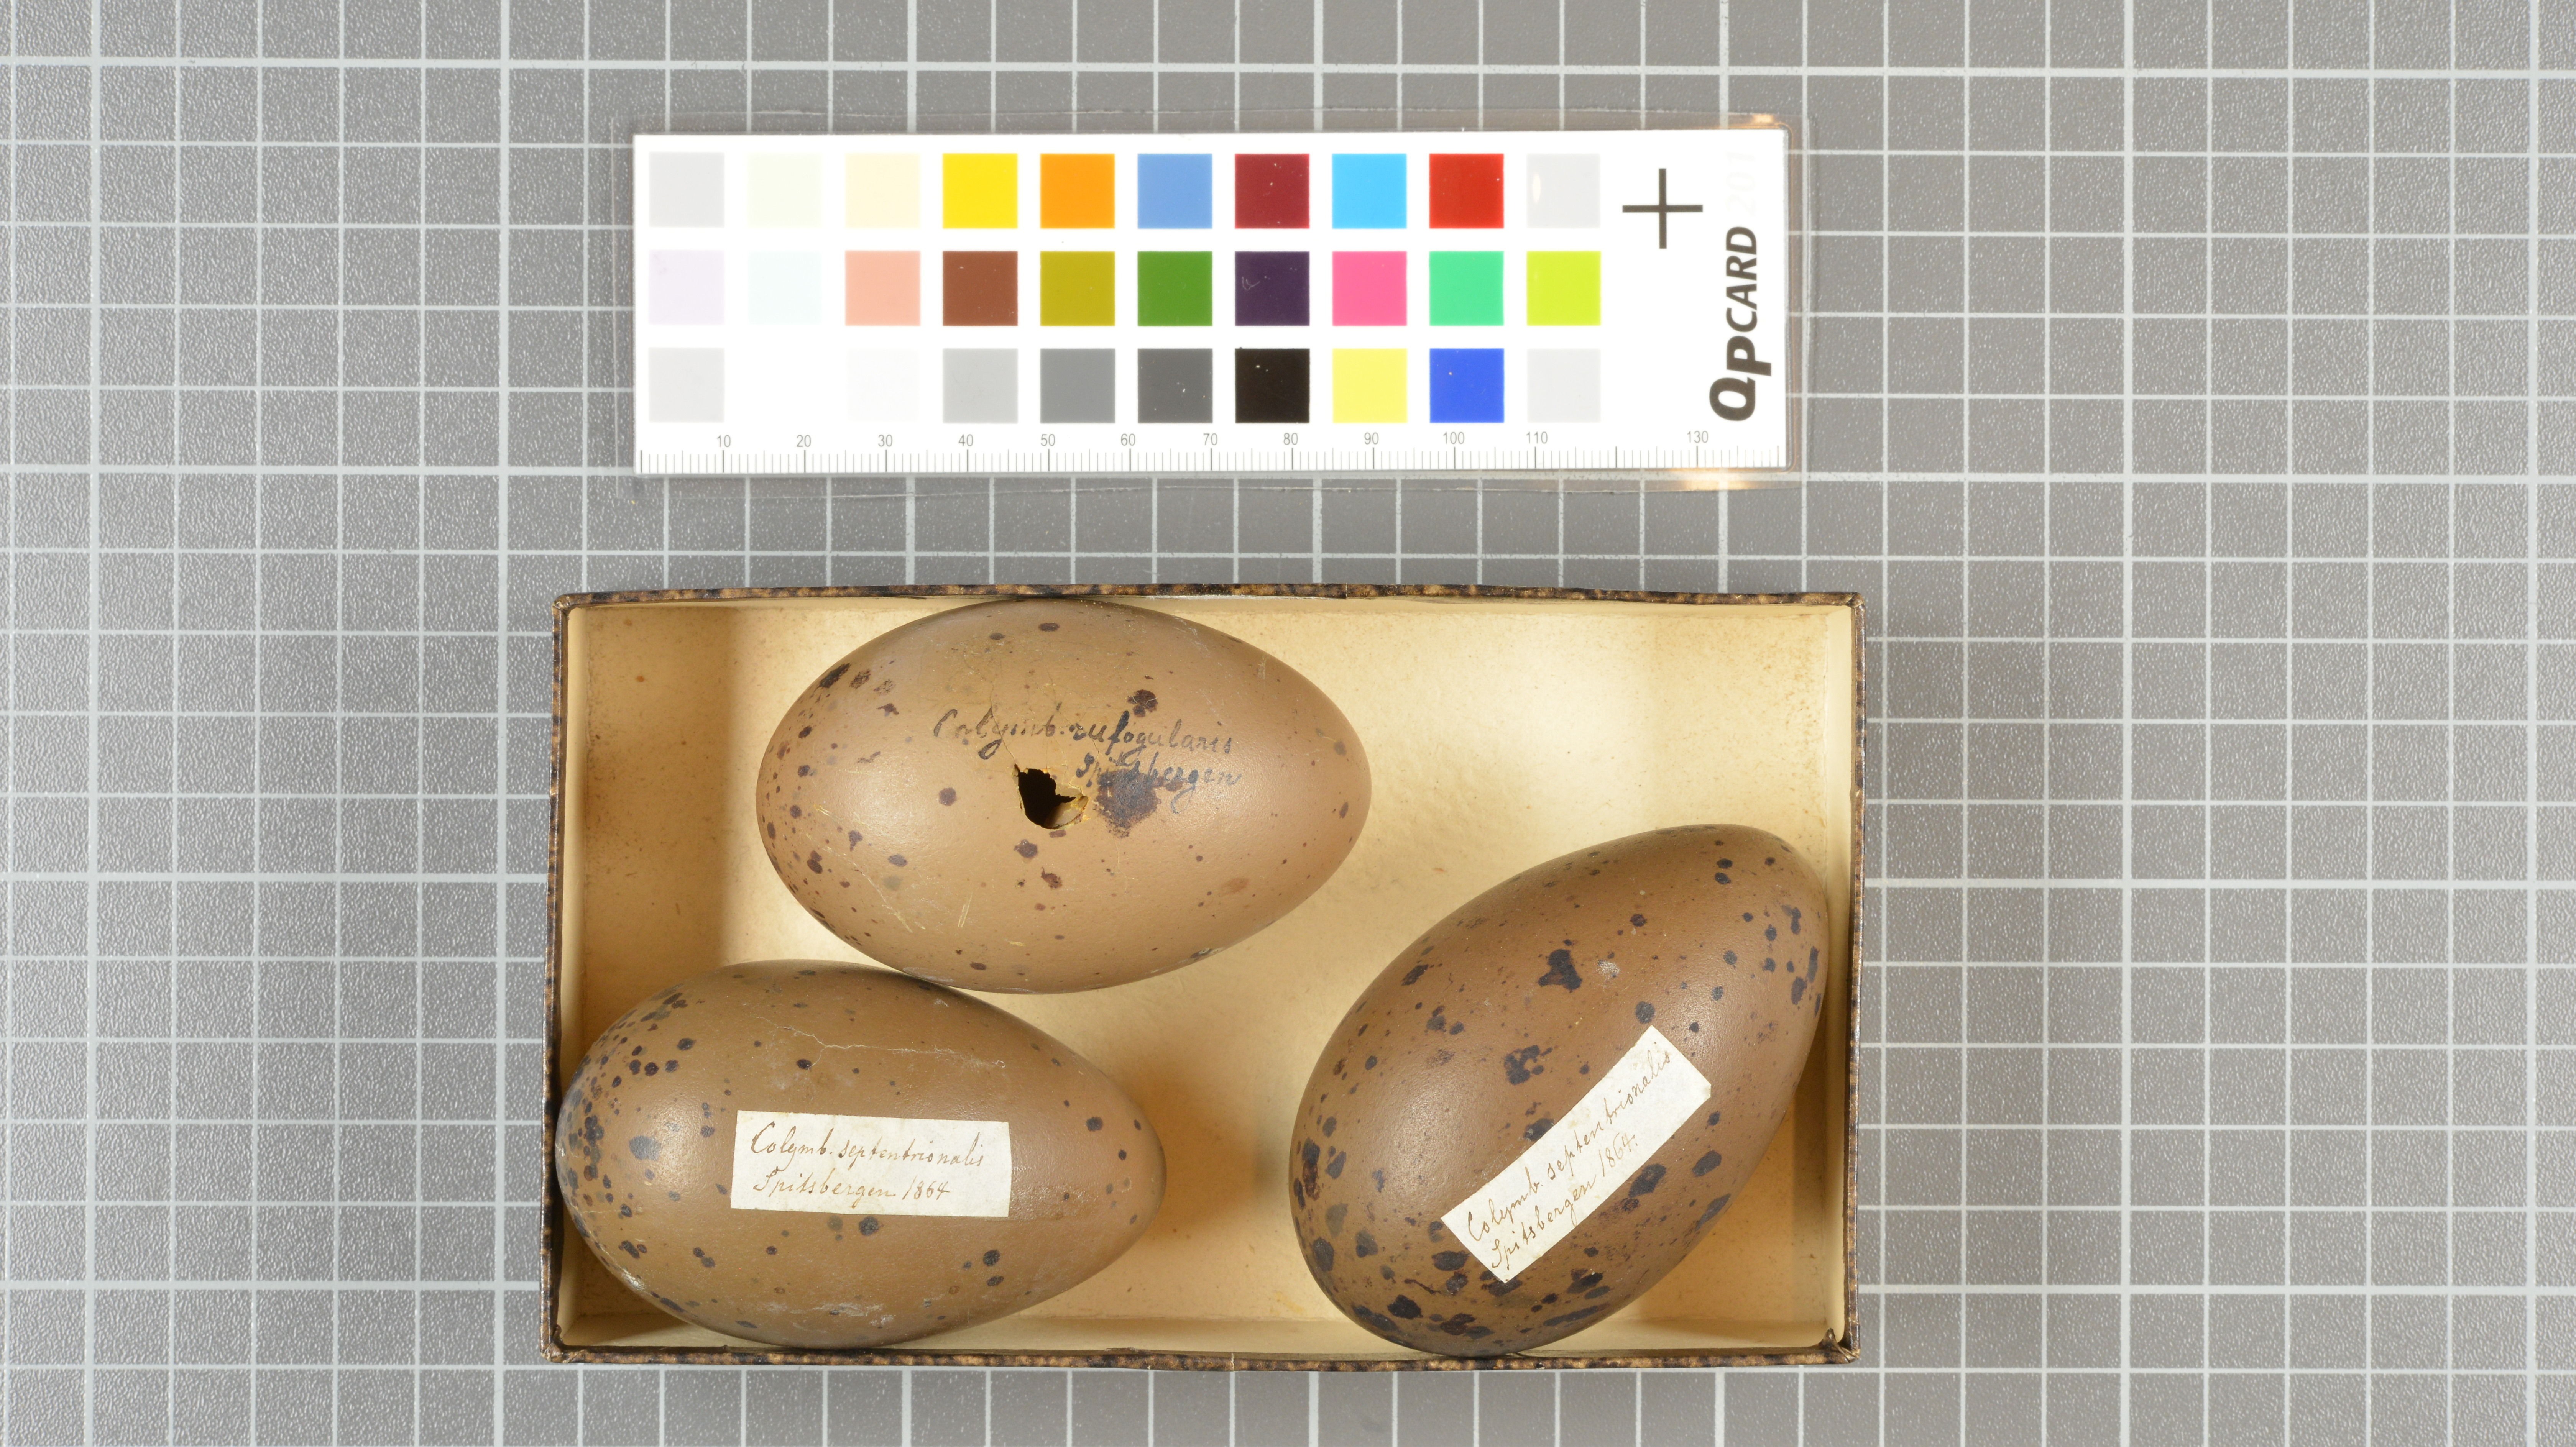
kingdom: Animalia
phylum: Chordata
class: Aves
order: Gaviiformes
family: Gaviidae
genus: Gavia
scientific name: Gavia stellata
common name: Red-throated loon
